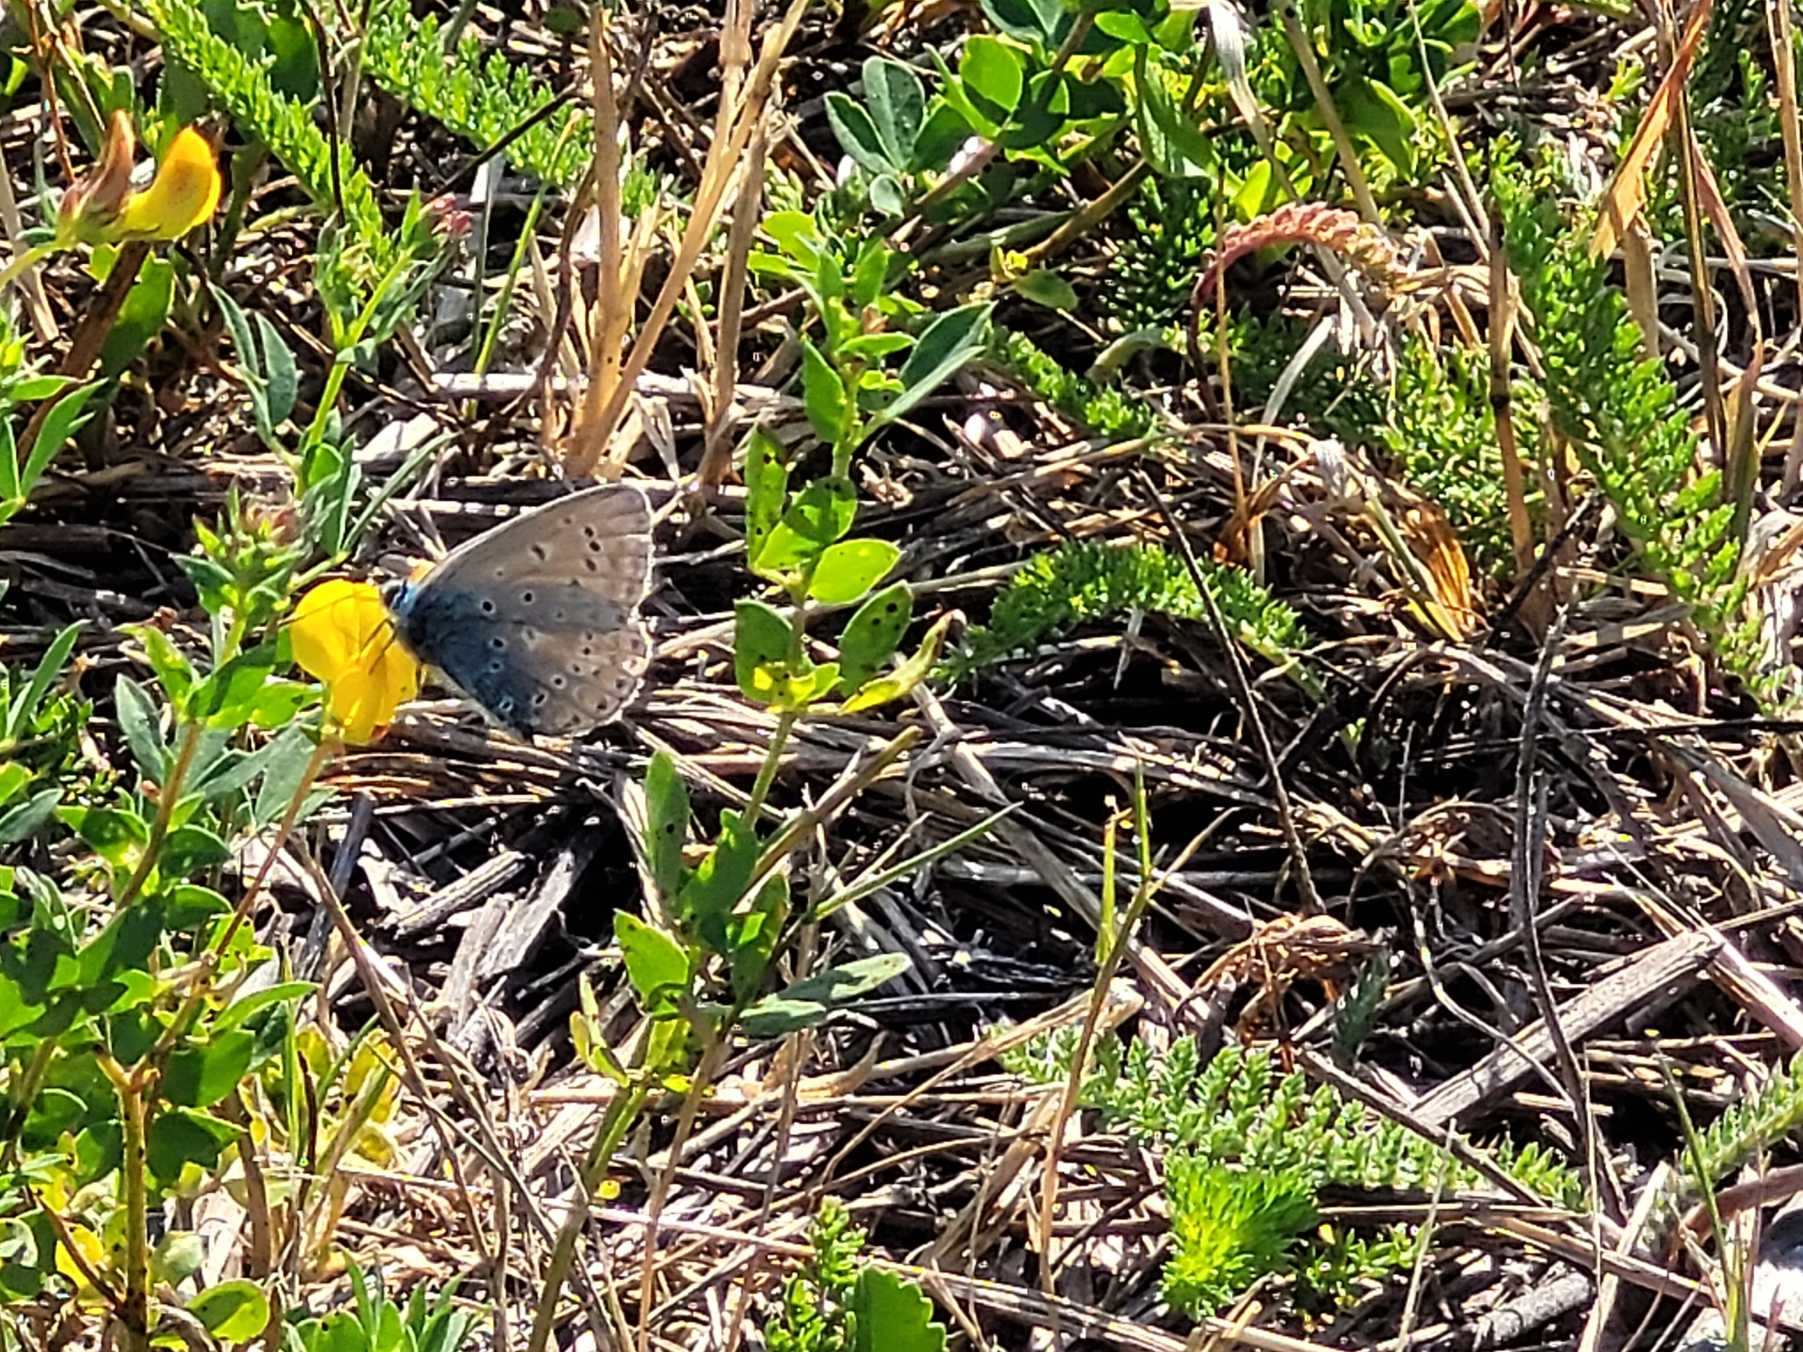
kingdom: Animalia
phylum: Arthropoda
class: Insecta
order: Lepidoptera
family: Lycaenidae
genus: Polyommatus
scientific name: Polyommatus icarus
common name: Almindelig blåfugl
